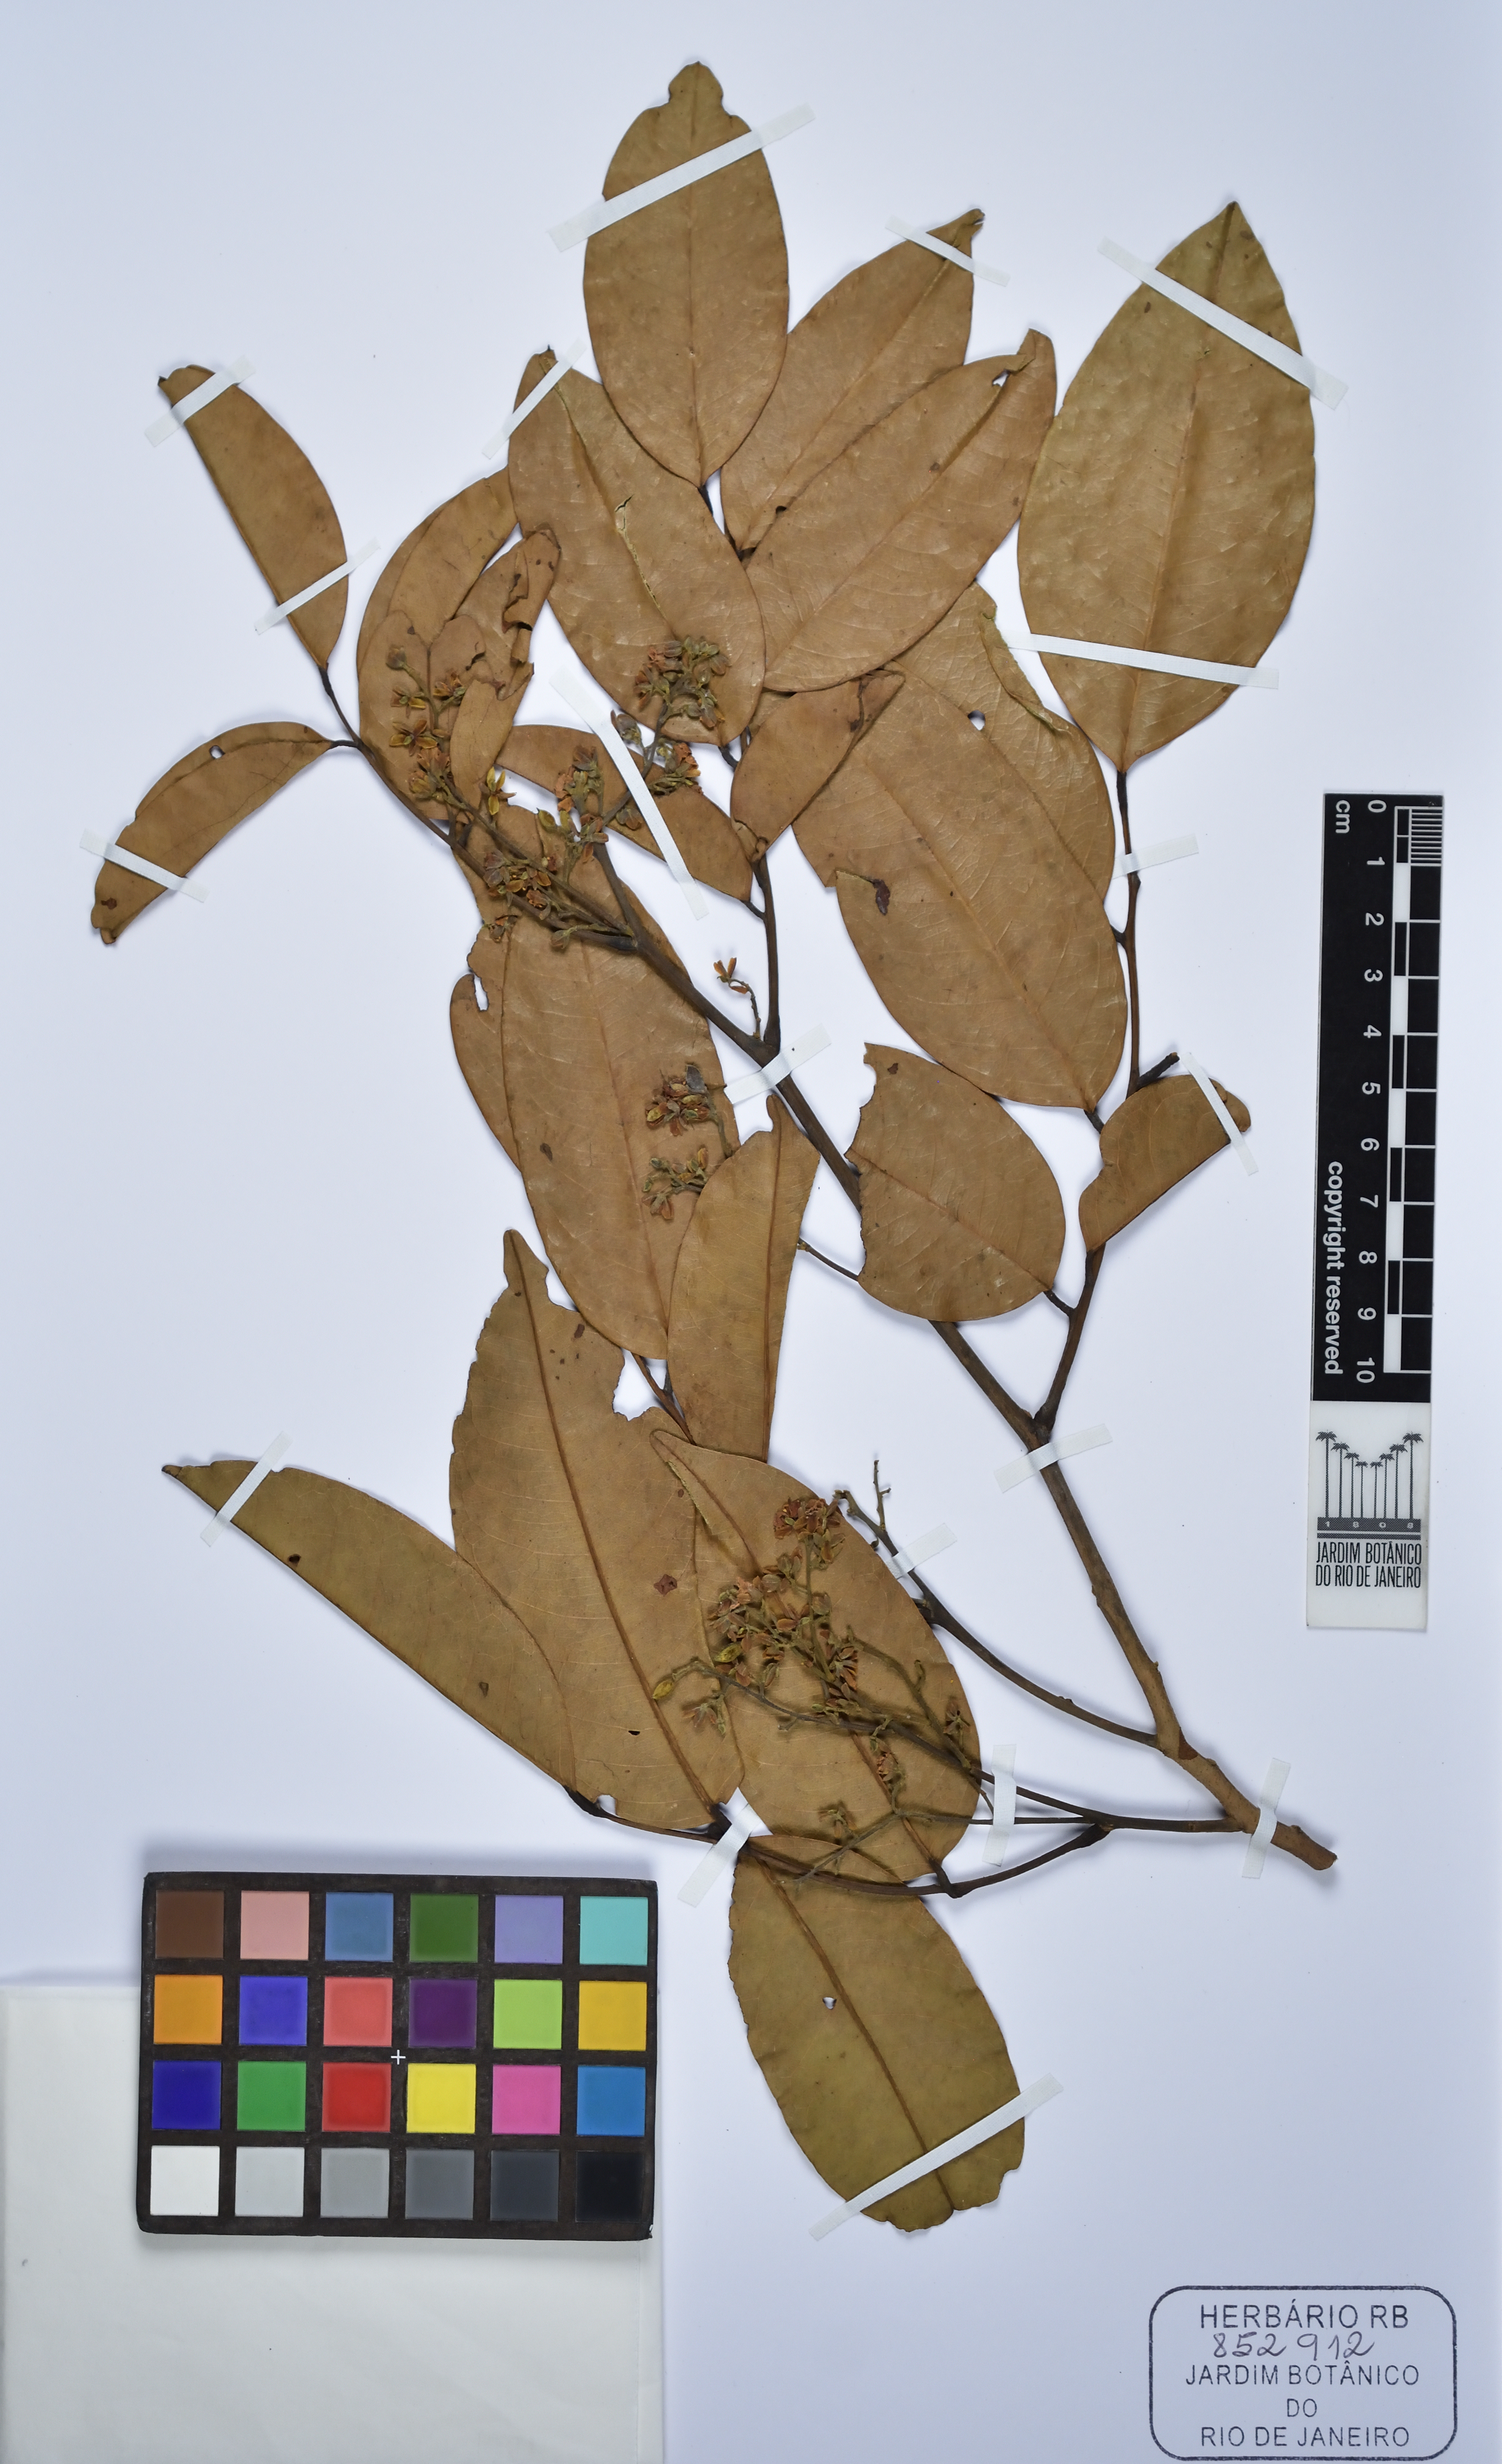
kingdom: Plantae
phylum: Tracheophyta
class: Magnoliopsida
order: Fabales
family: Fabaceae
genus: Androcalymma
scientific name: Androcalymma glabrifolium
